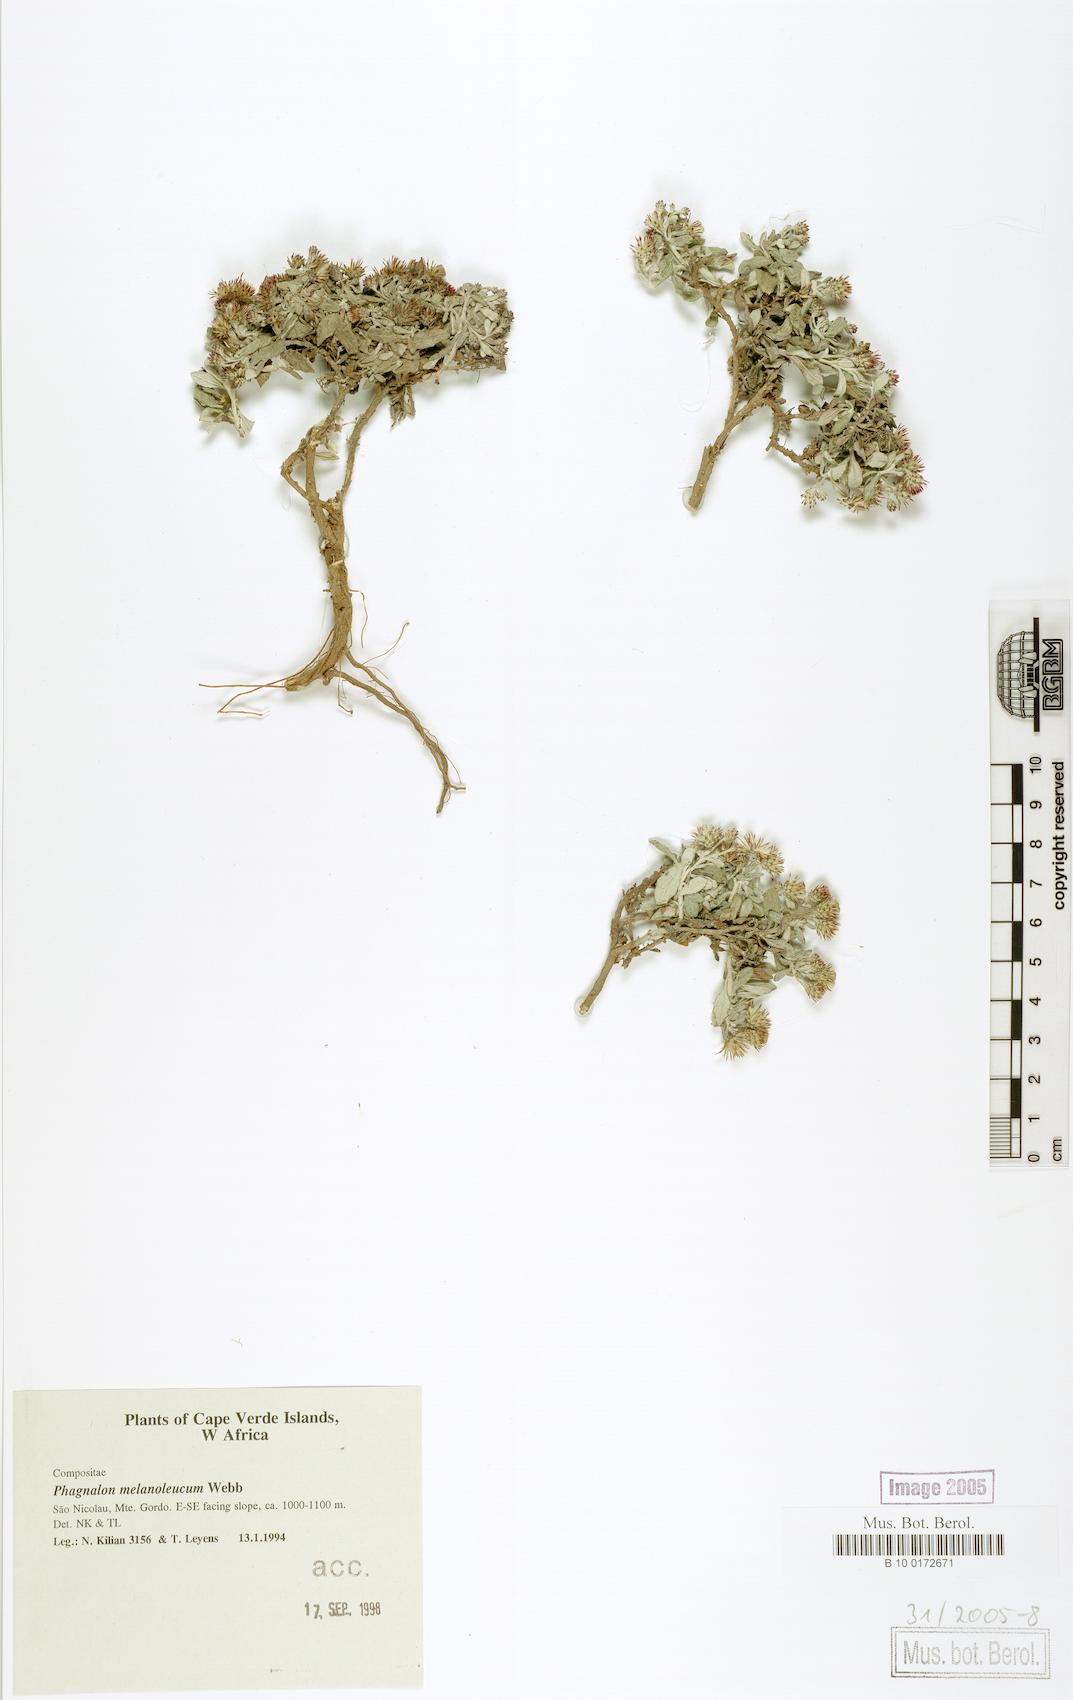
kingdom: Plantae
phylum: Tracheophyta
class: Magnoliopsida
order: Asterales
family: Asteraceae
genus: Phagnalon
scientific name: Phagnalon melanoleucum
